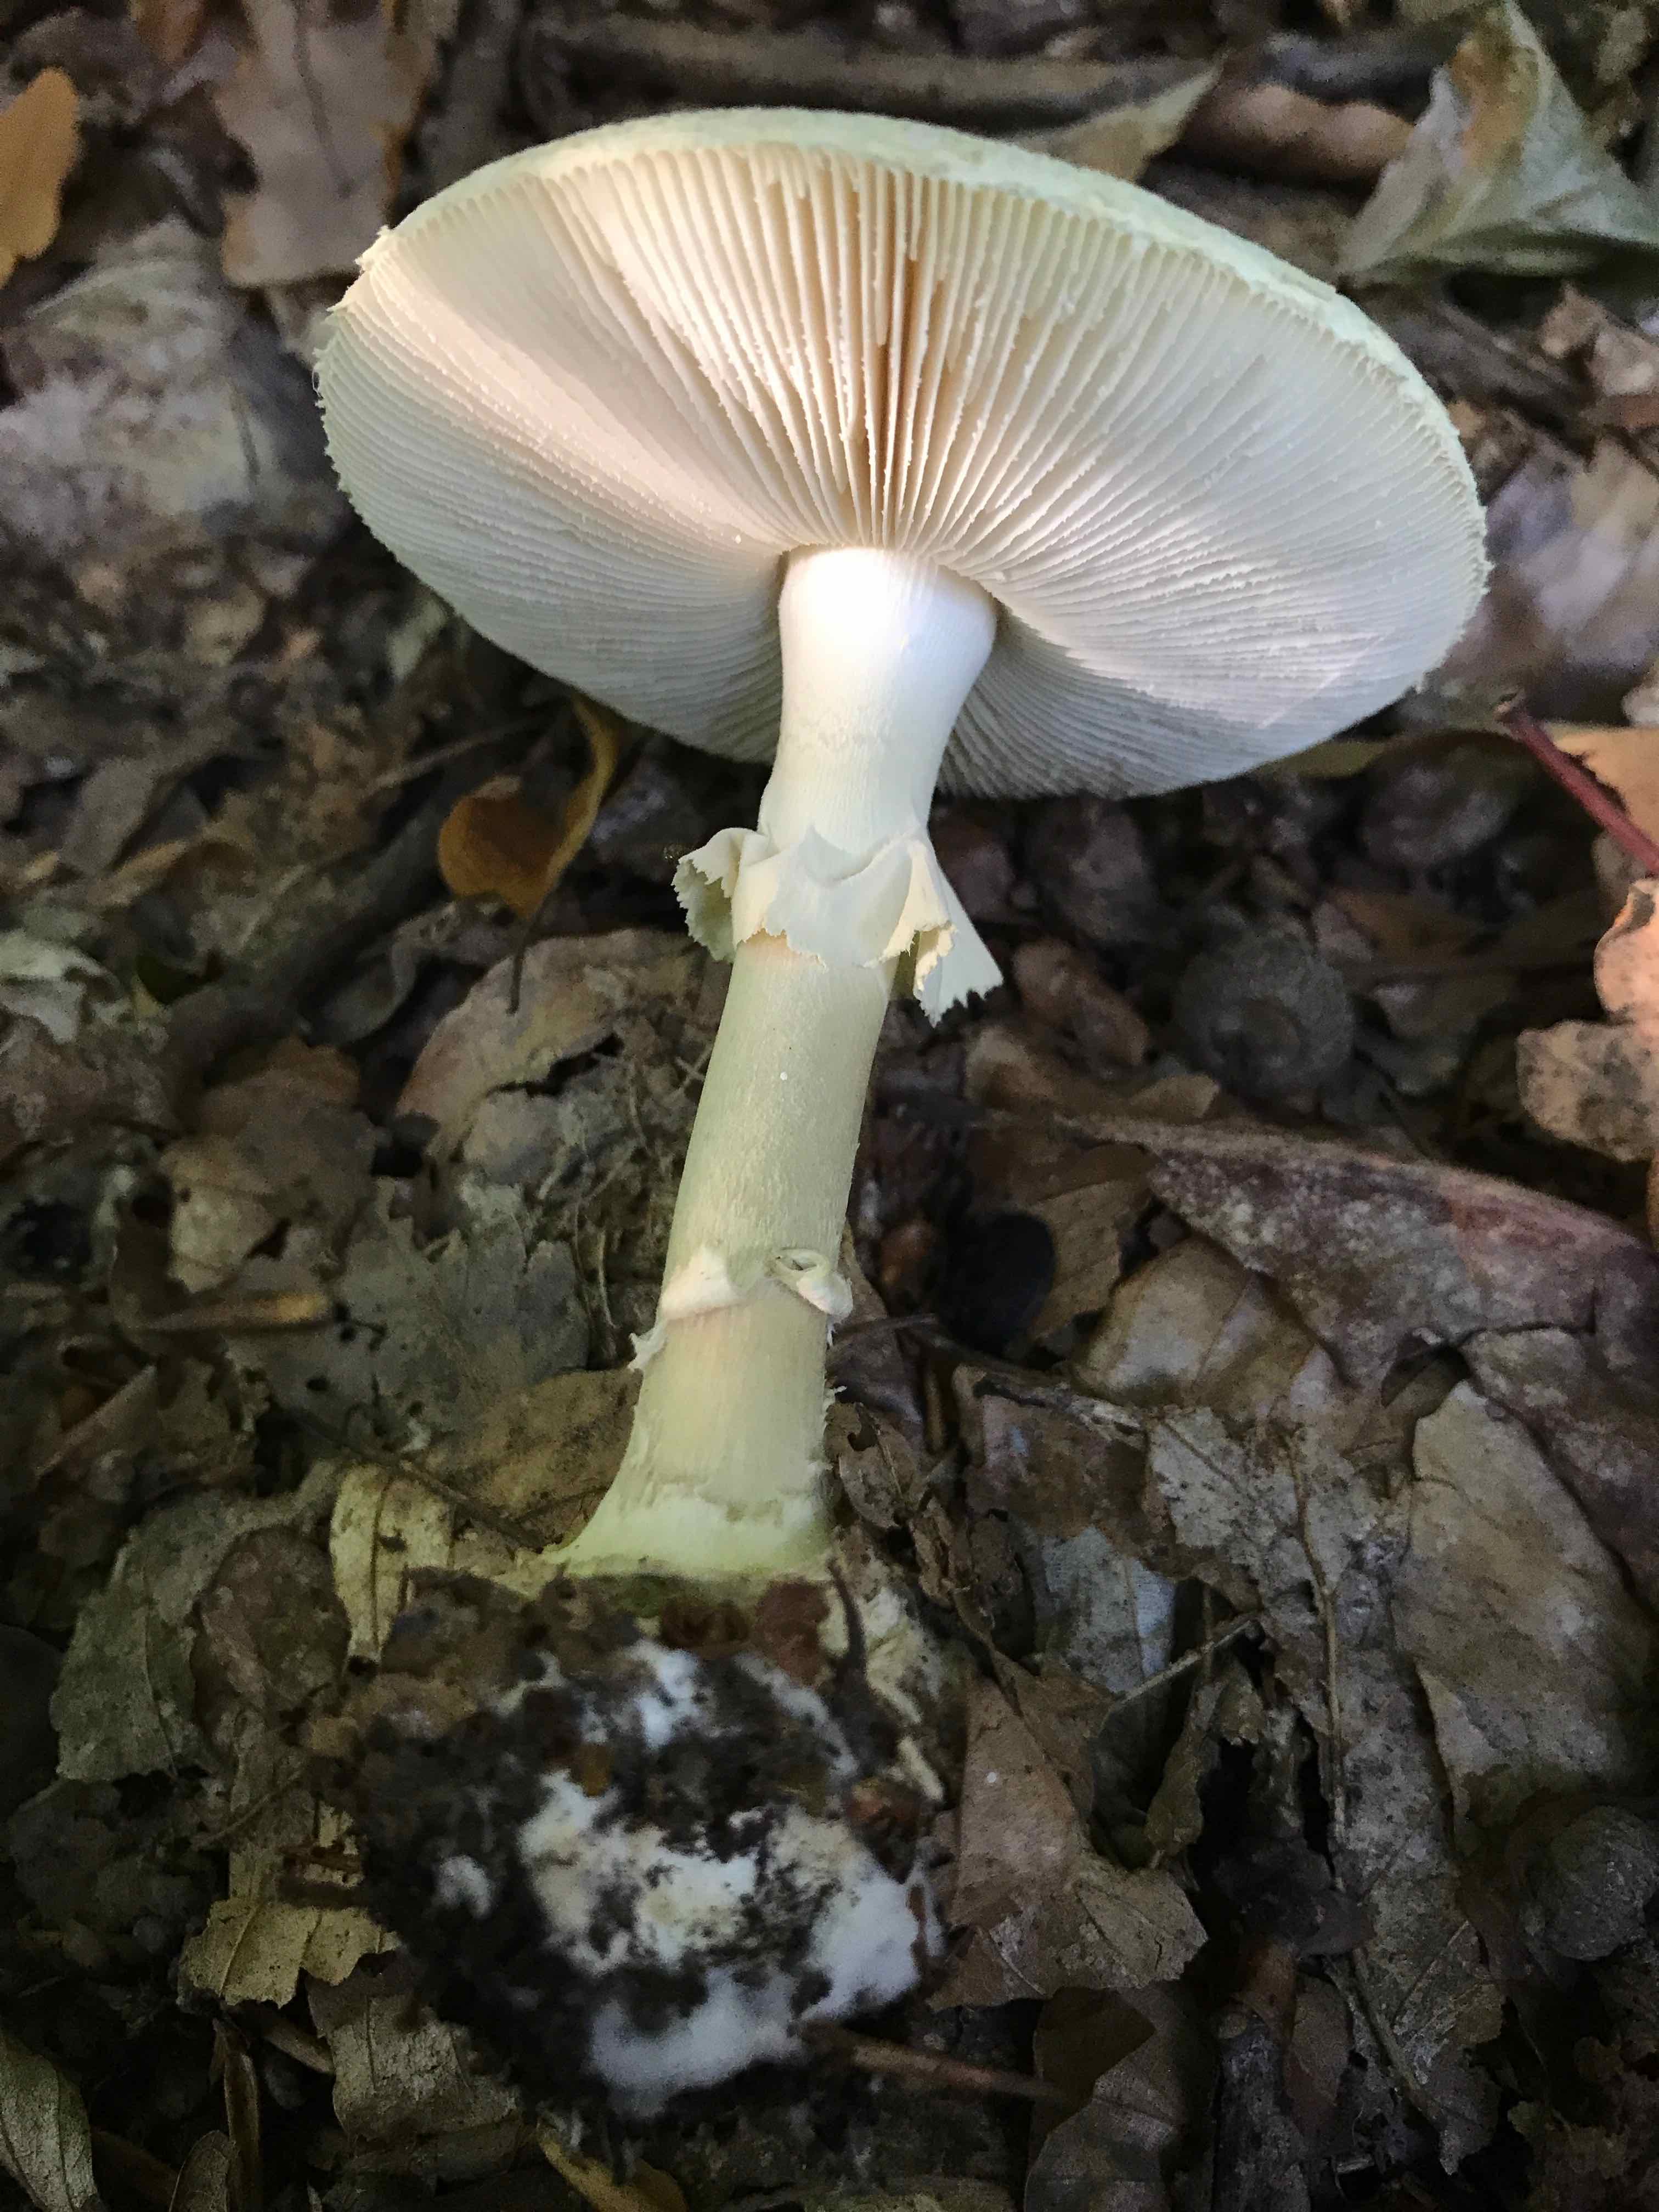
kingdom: Fungi
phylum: Basidiomycota
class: Agaricomycetes
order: Agaricales
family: Amanitaceae
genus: Amanita
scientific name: Amanita citrina
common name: False death-cap
